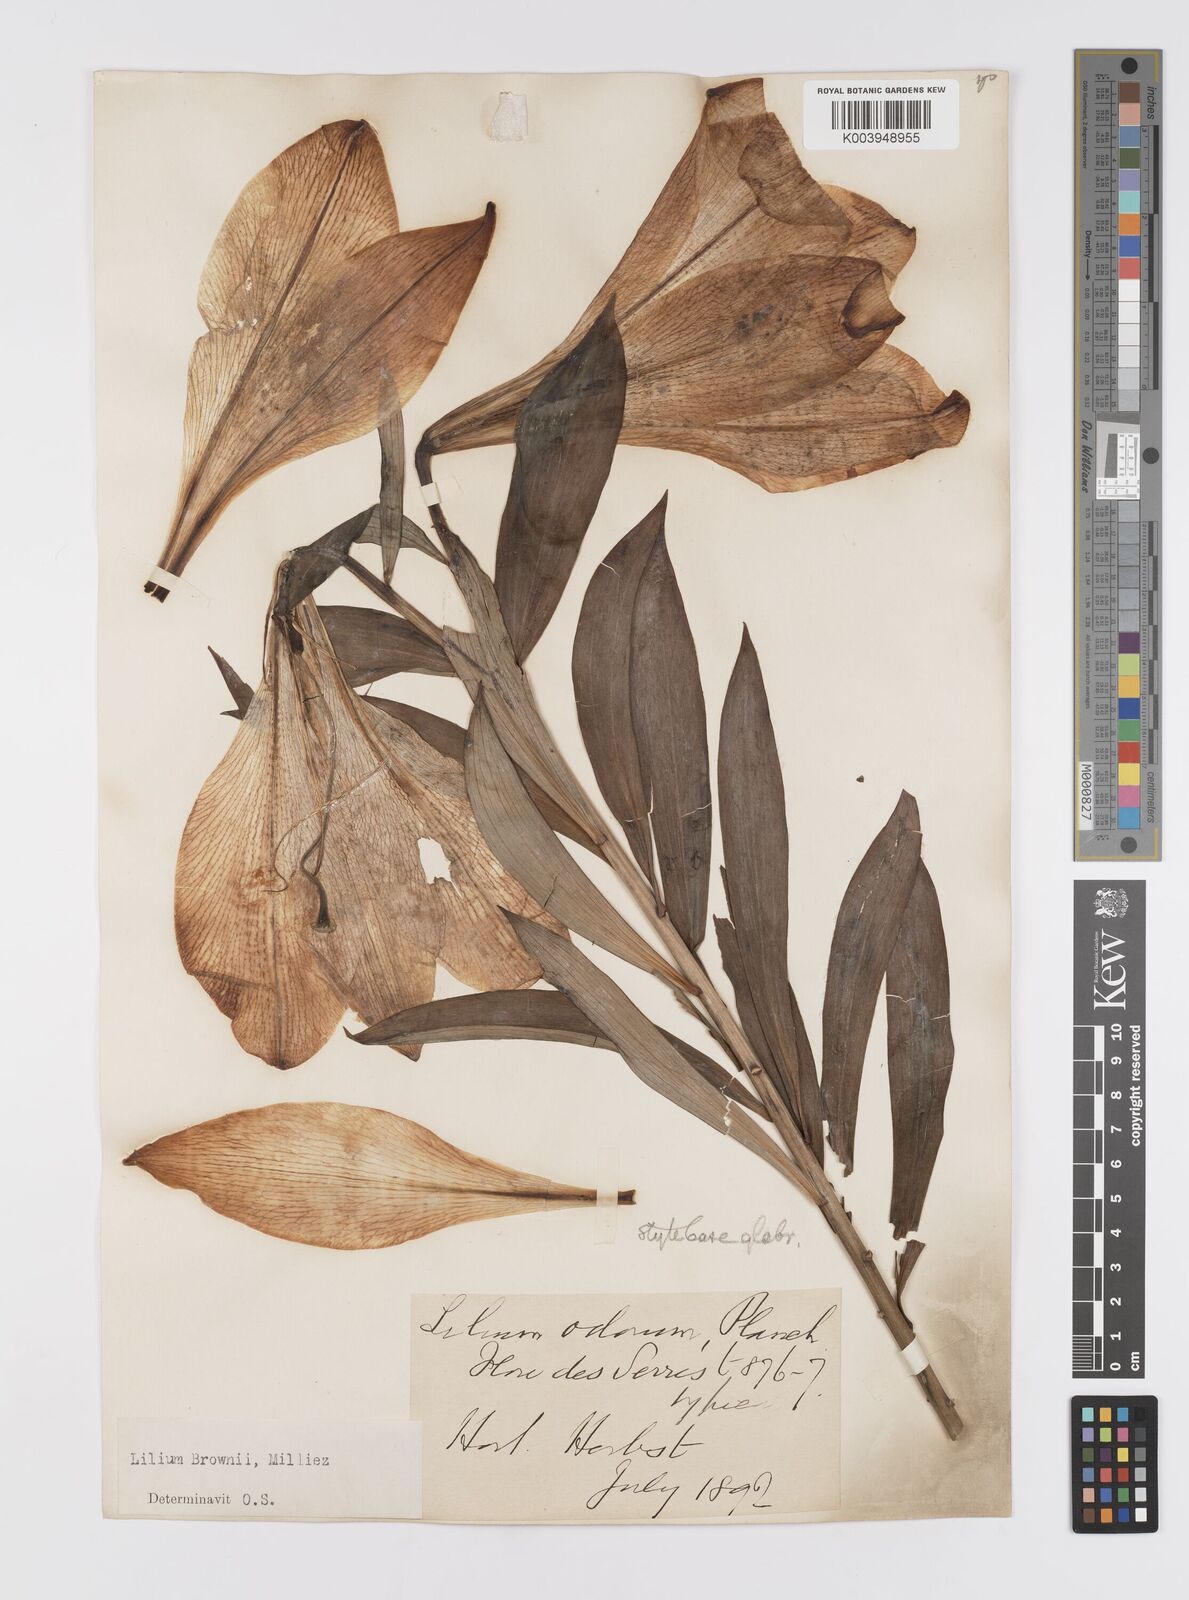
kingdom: Plantae
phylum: Tracheophyta
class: Liliopsida
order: Liliales
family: Liliaceae
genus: Lilium
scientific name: Lilium japonicum
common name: Japanese lily
